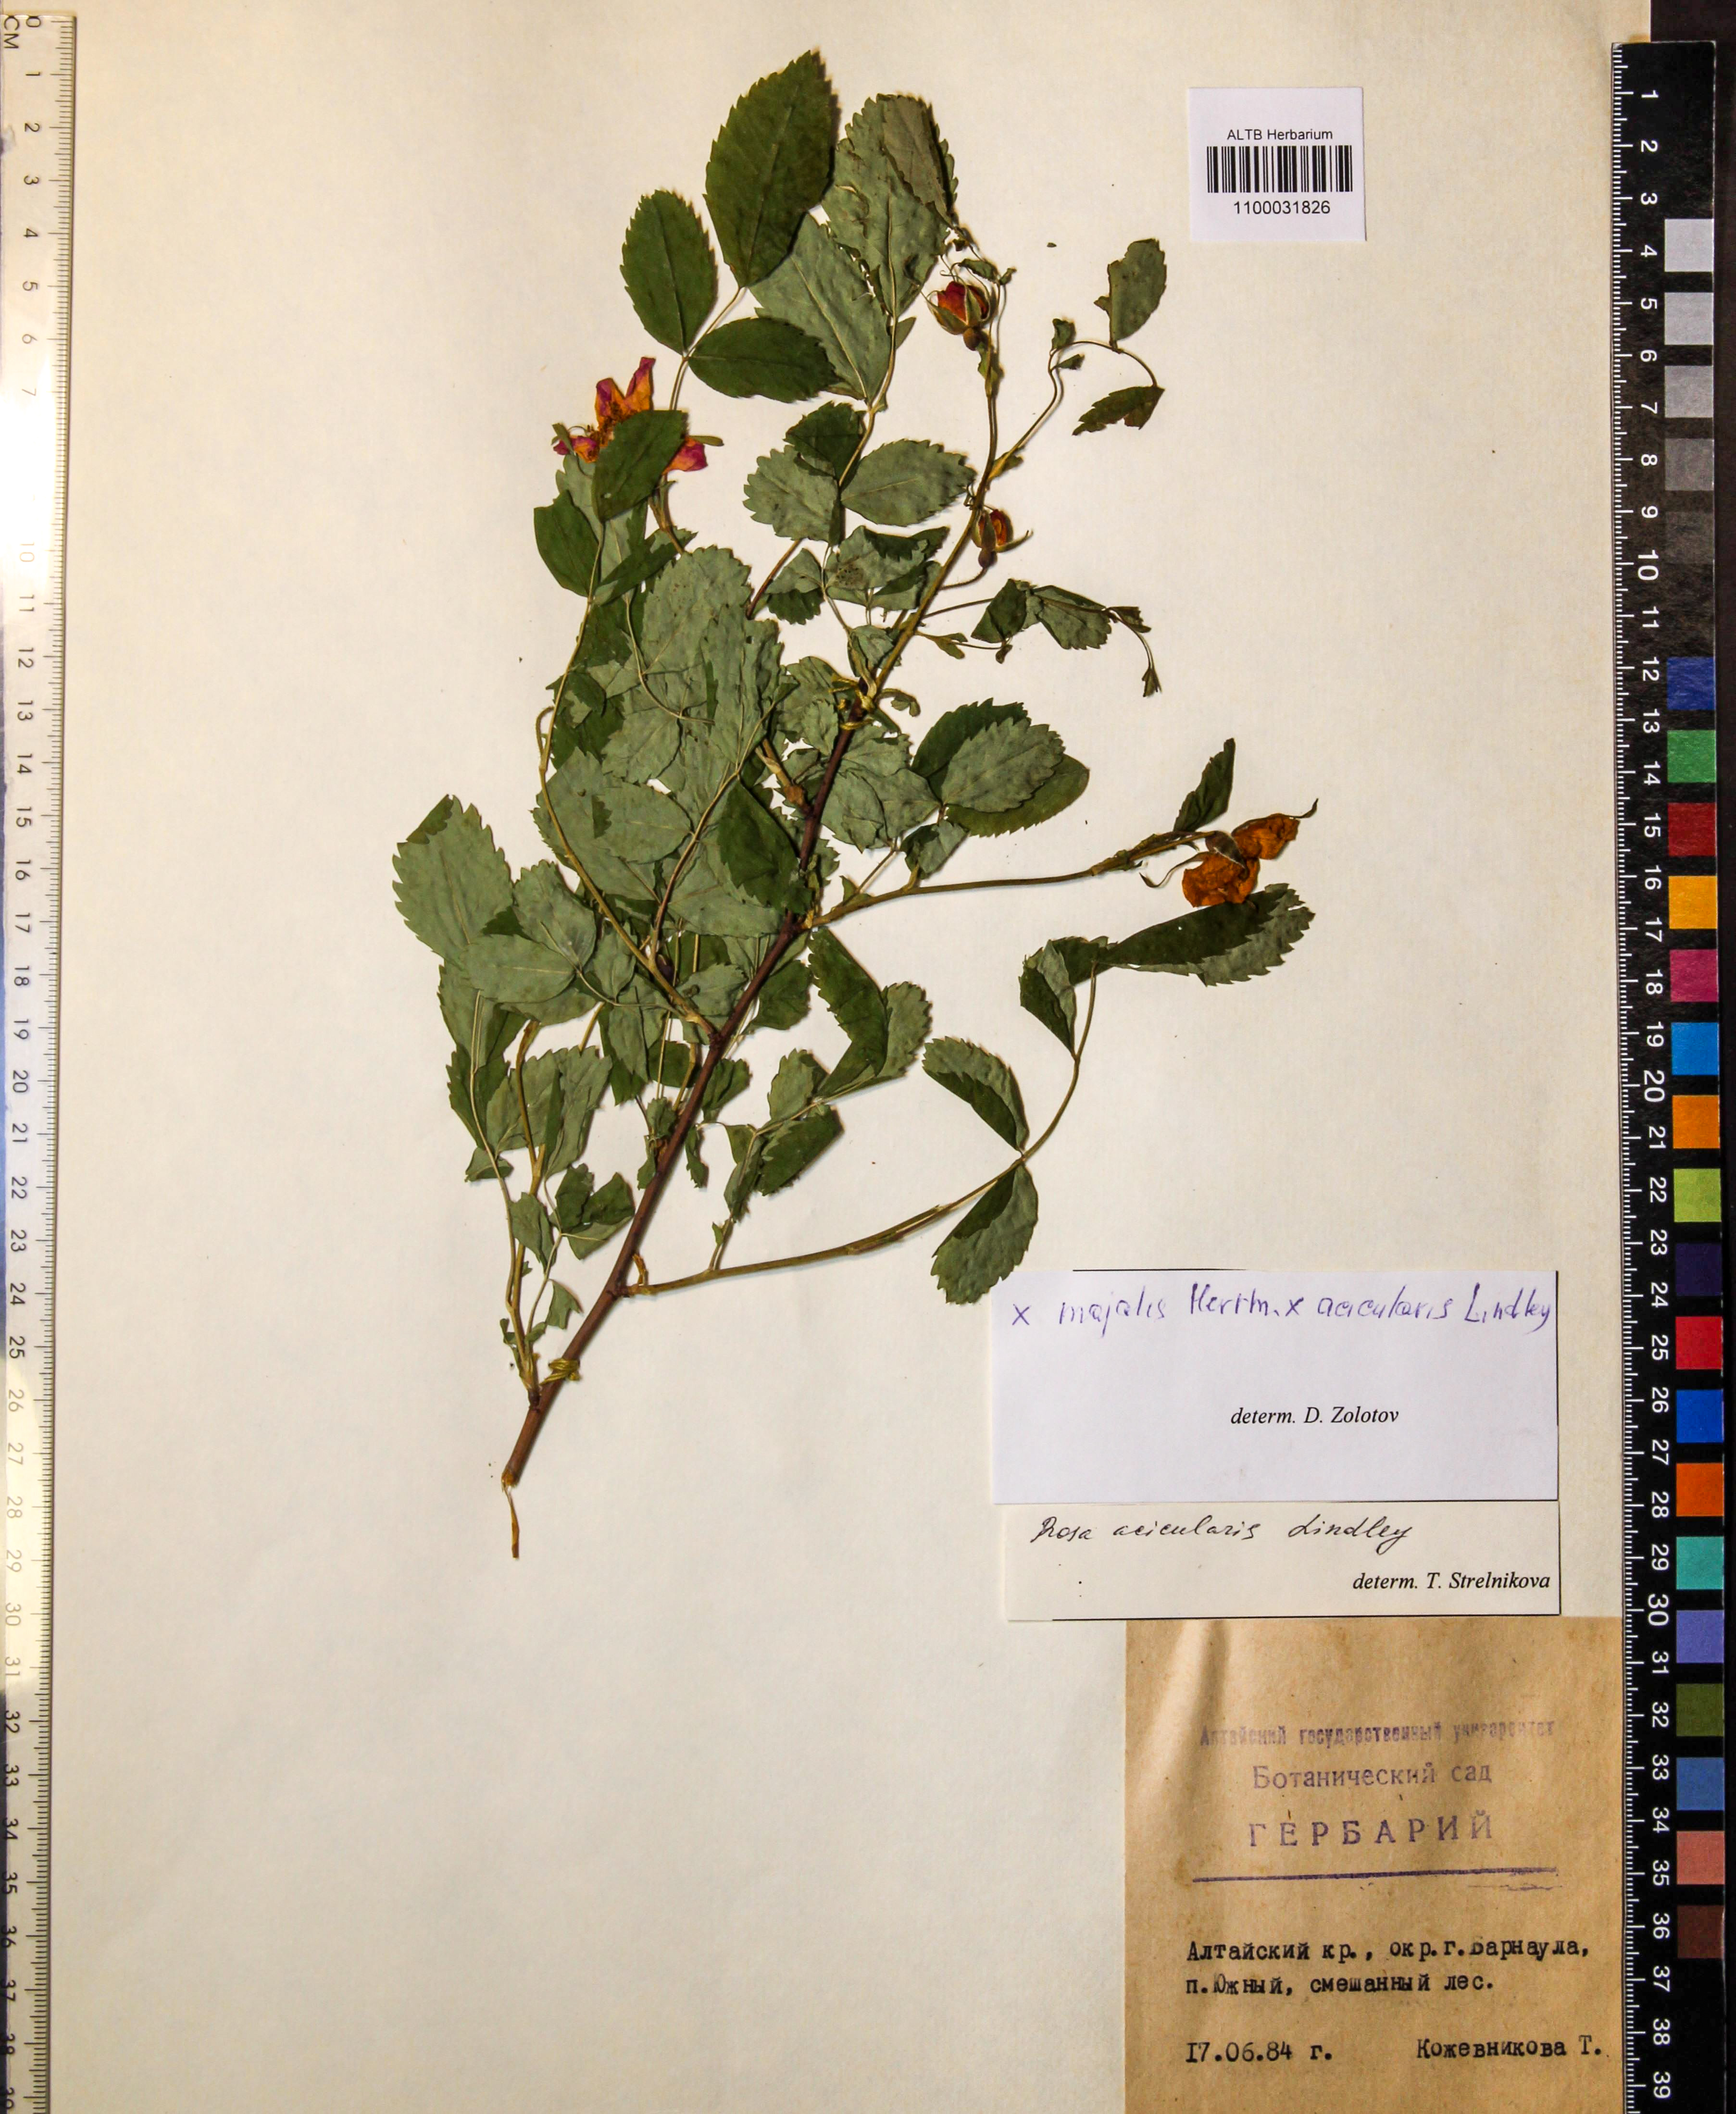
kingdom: Plantae
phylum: Tracheophyta
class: Magnoliopsida
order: Rosales
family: Rosaceae
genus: Rosa
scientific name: Rosa acicularis
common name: Prickly rose
